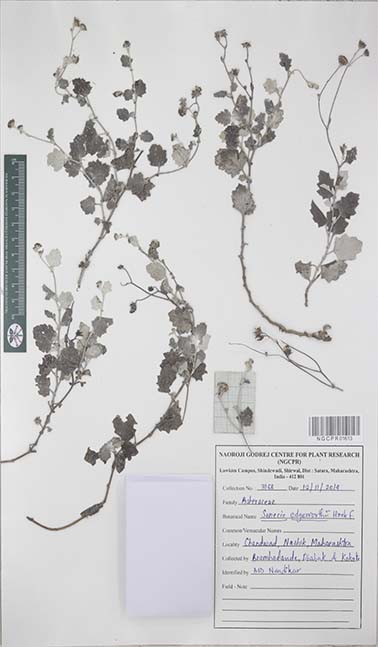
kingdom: Plantae
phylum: Tracheophyta
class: Magnoliopsida
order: Asterales
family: Asteraceae
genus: Senecio
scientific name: Senecio edgeworthii
